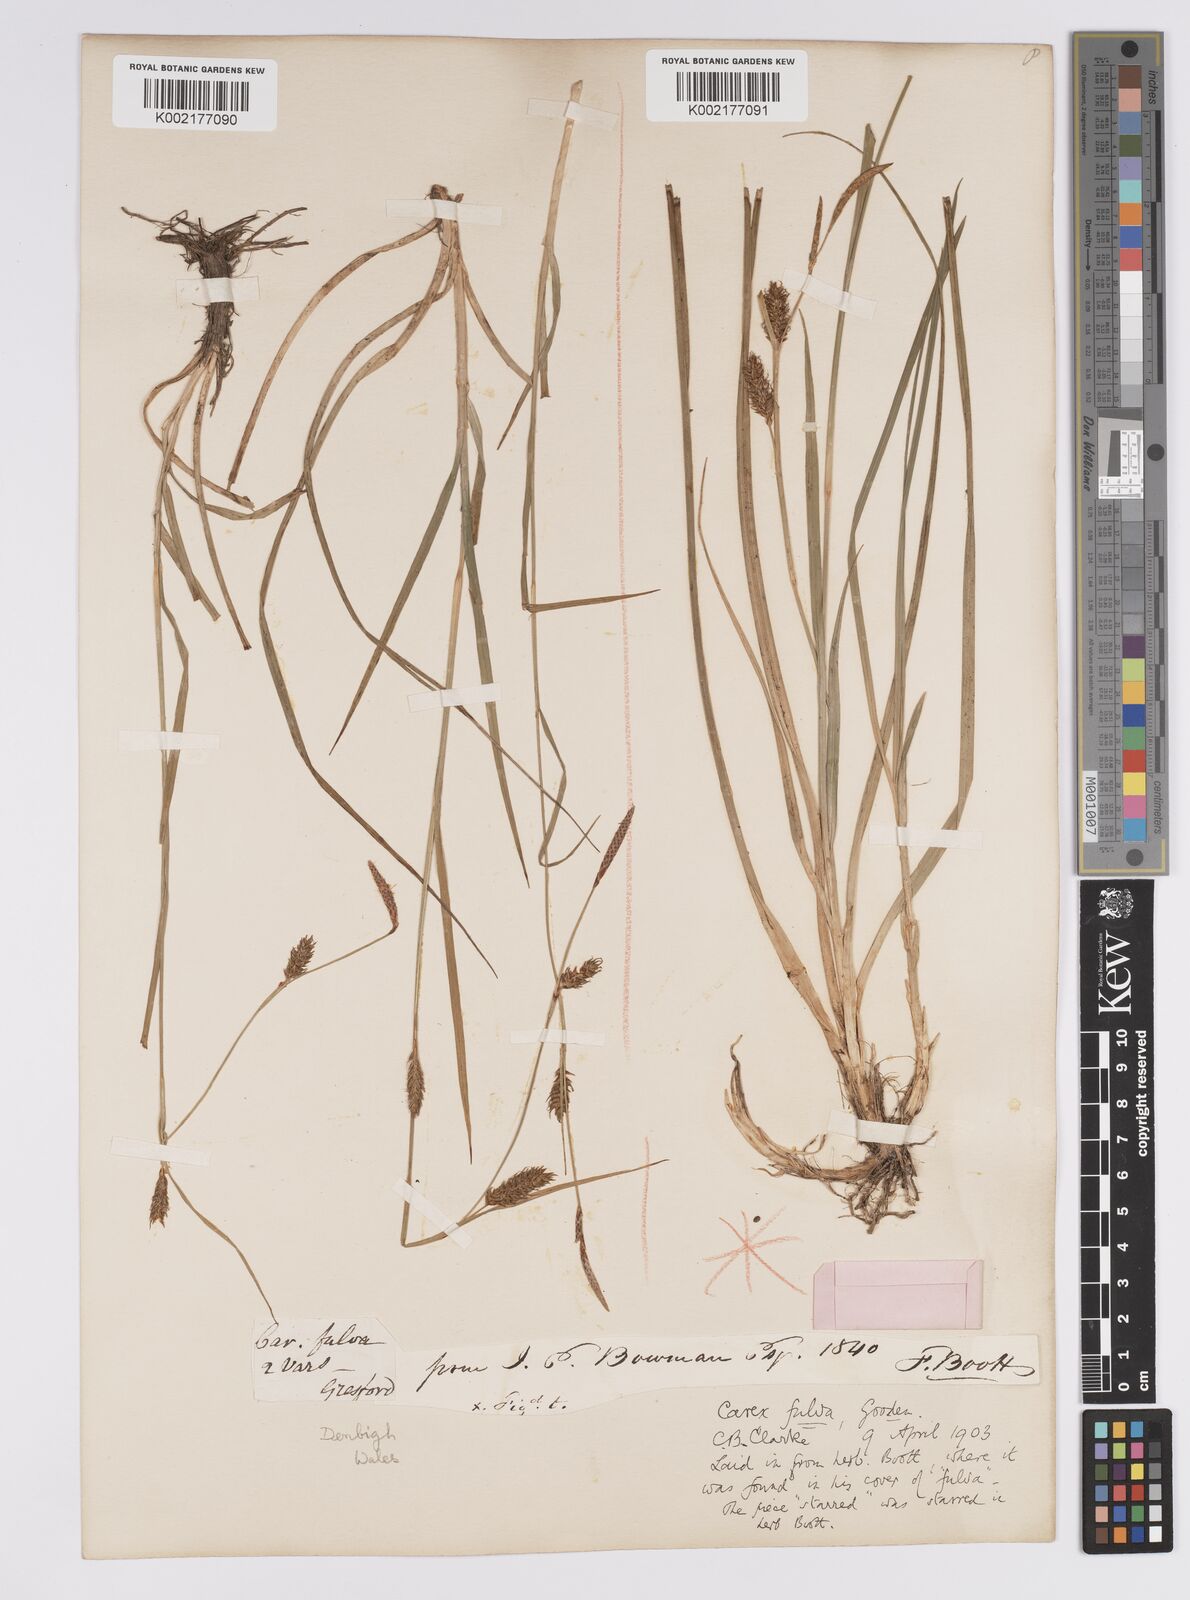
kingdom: Plantae
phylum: Tracheophyta
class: Liliopsida
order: Poales
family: Cyperaceae
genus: Carex
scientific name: Carex hostiana
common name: Tawny sedge
